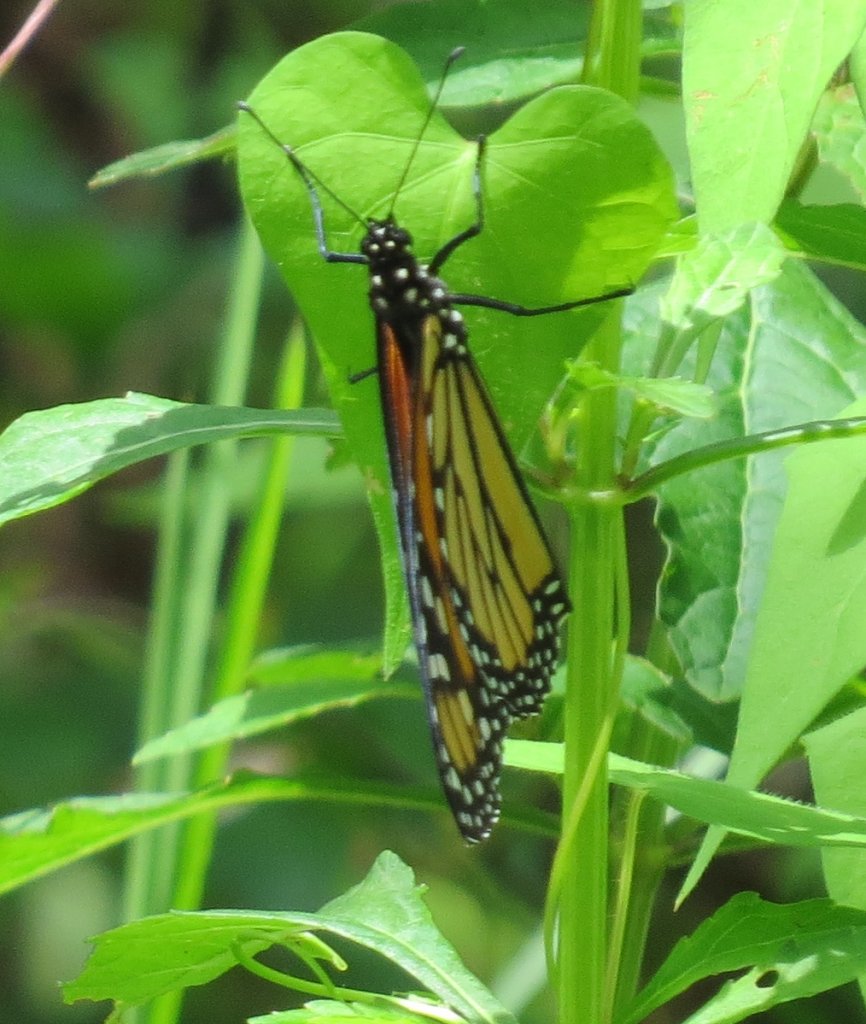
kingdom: Animalia
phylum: Arthropoda
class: Insecta
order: Lepidoptera
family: Nymphalidae
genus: Danaus
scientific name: Danaus plexippus
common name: Monarch
